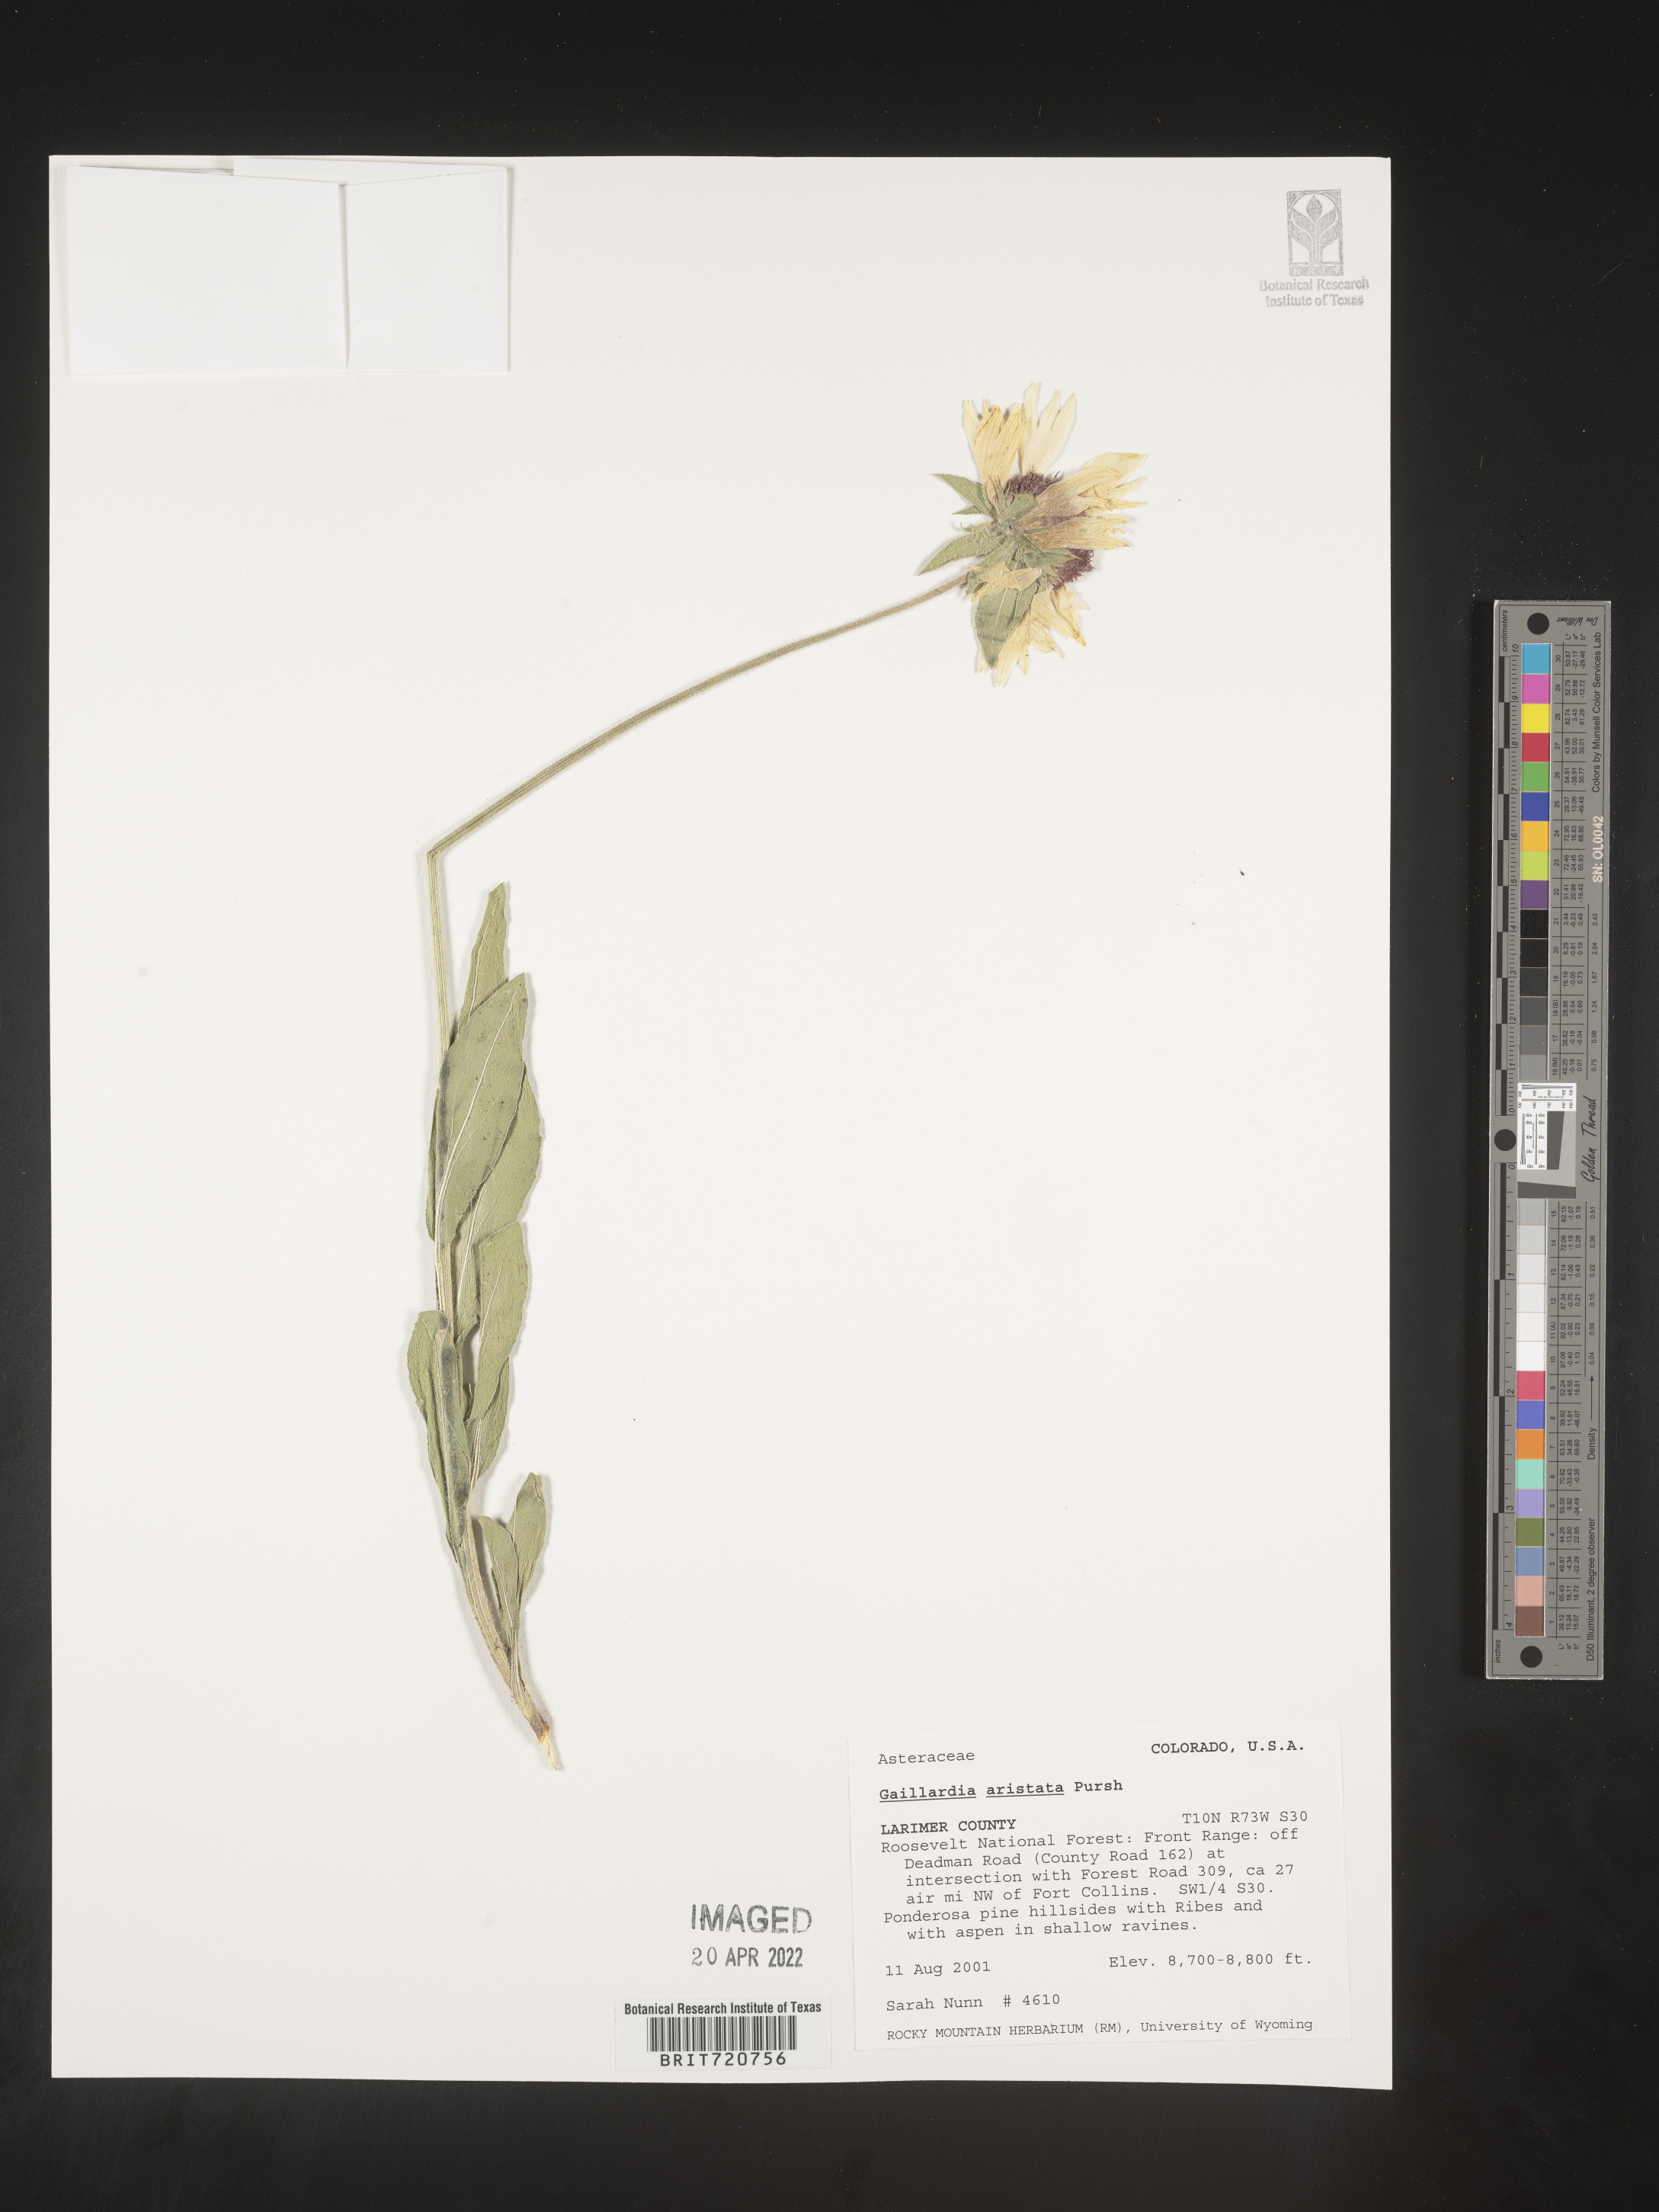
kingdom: Plantae
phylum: Tracheophyta
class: Magnoliopsida
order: Asterales
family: Asteraceae
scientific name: Asteraceae
